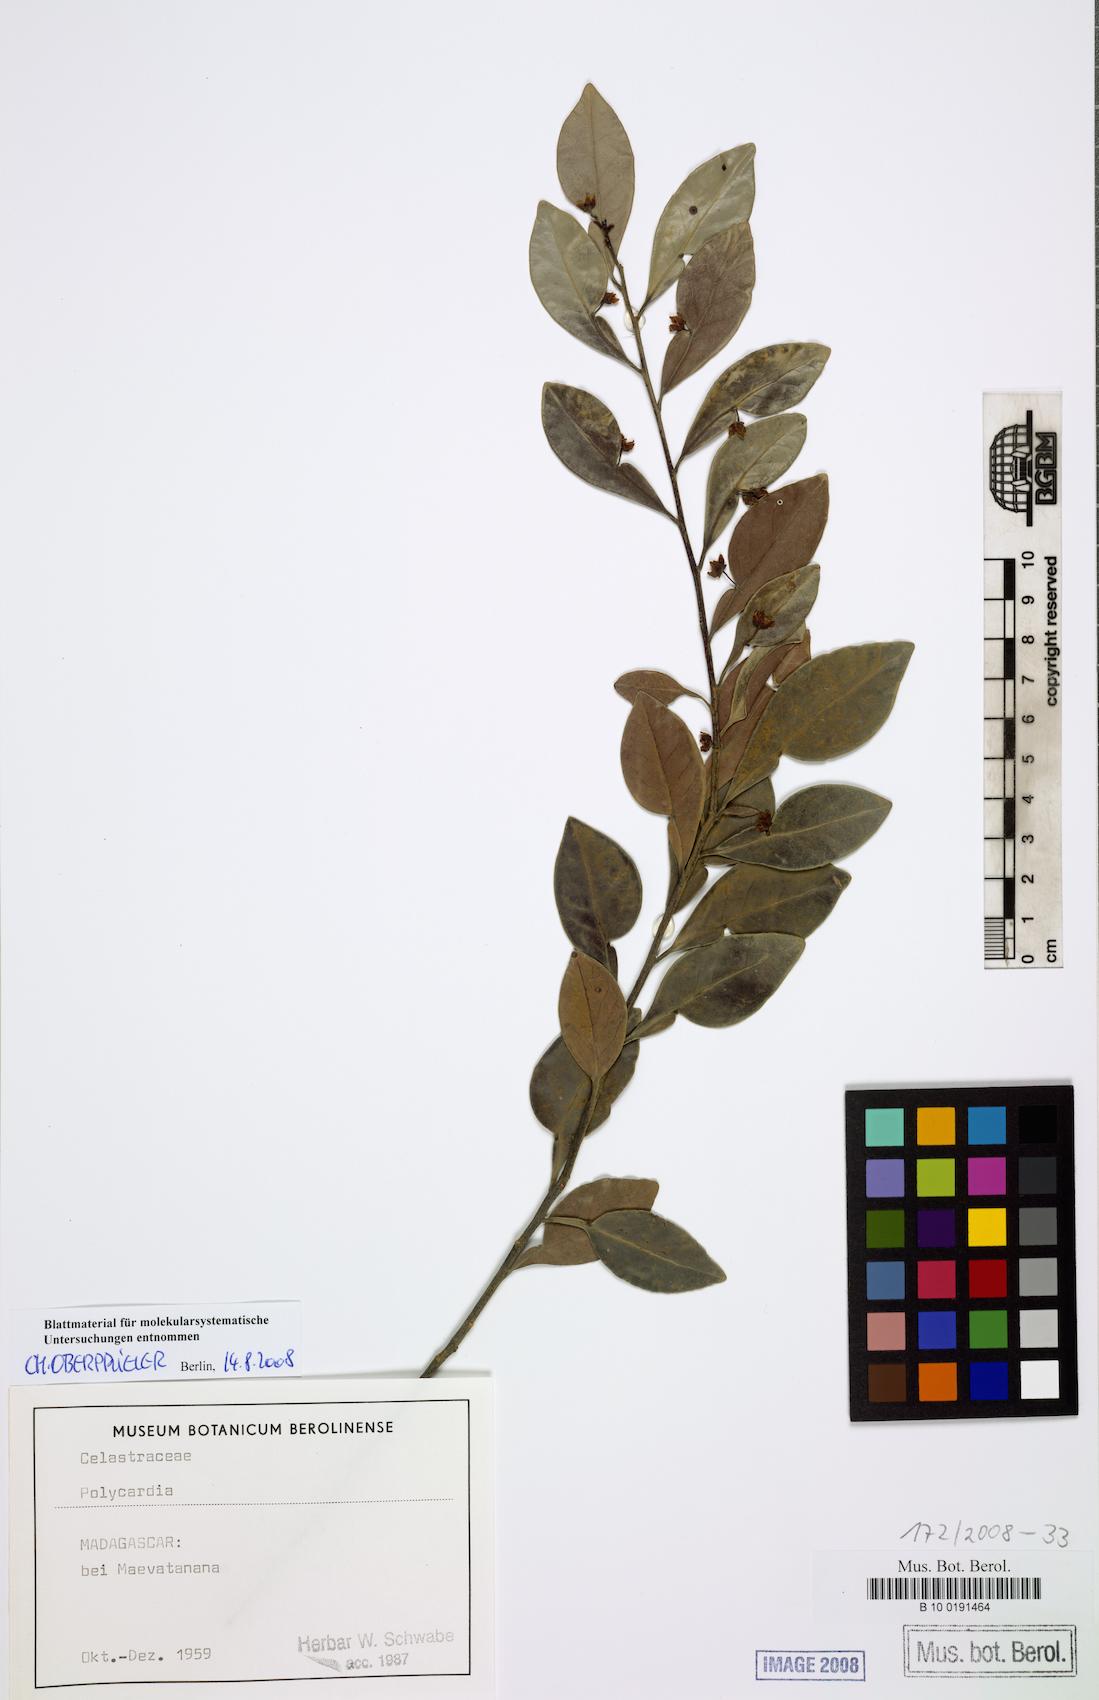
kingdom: Plantae
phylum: Tracheophyta
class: Magnoliopsida
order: Celastrales
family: Celastraceae
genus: Polycardia
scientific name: Polycardia
